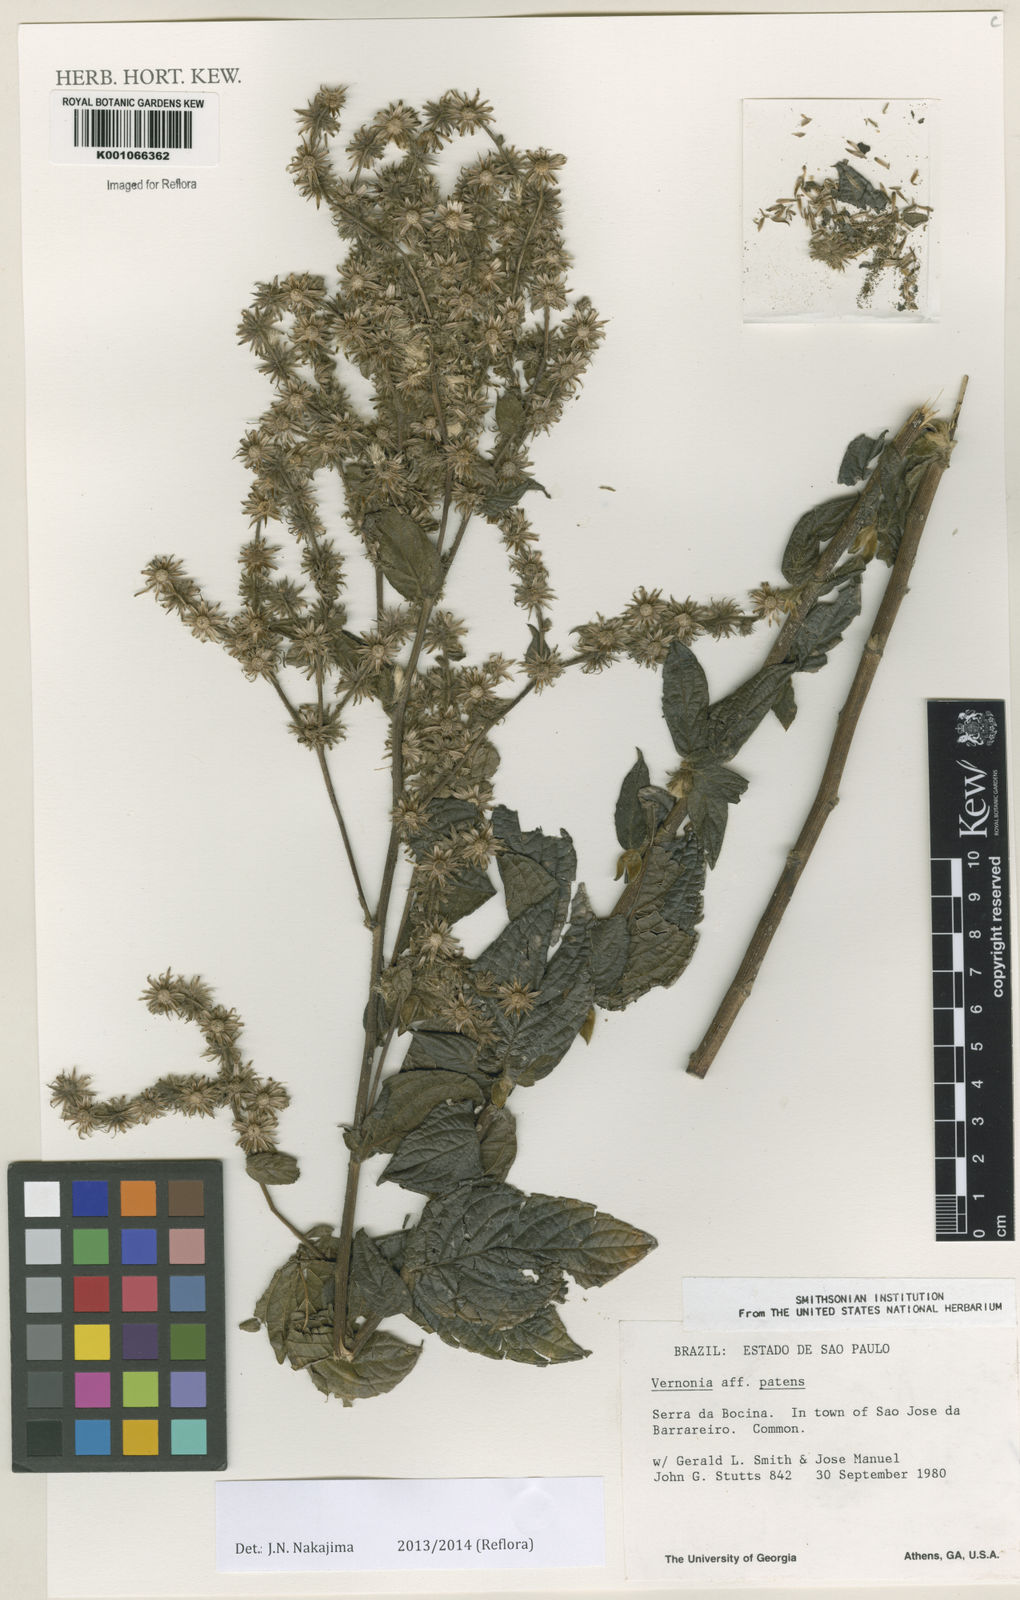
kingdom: Plantae
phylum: Tracheophyta
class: Magnoliopsida
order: Asterales
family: Asteraceae
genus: Vernonia
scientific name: Vernonia
